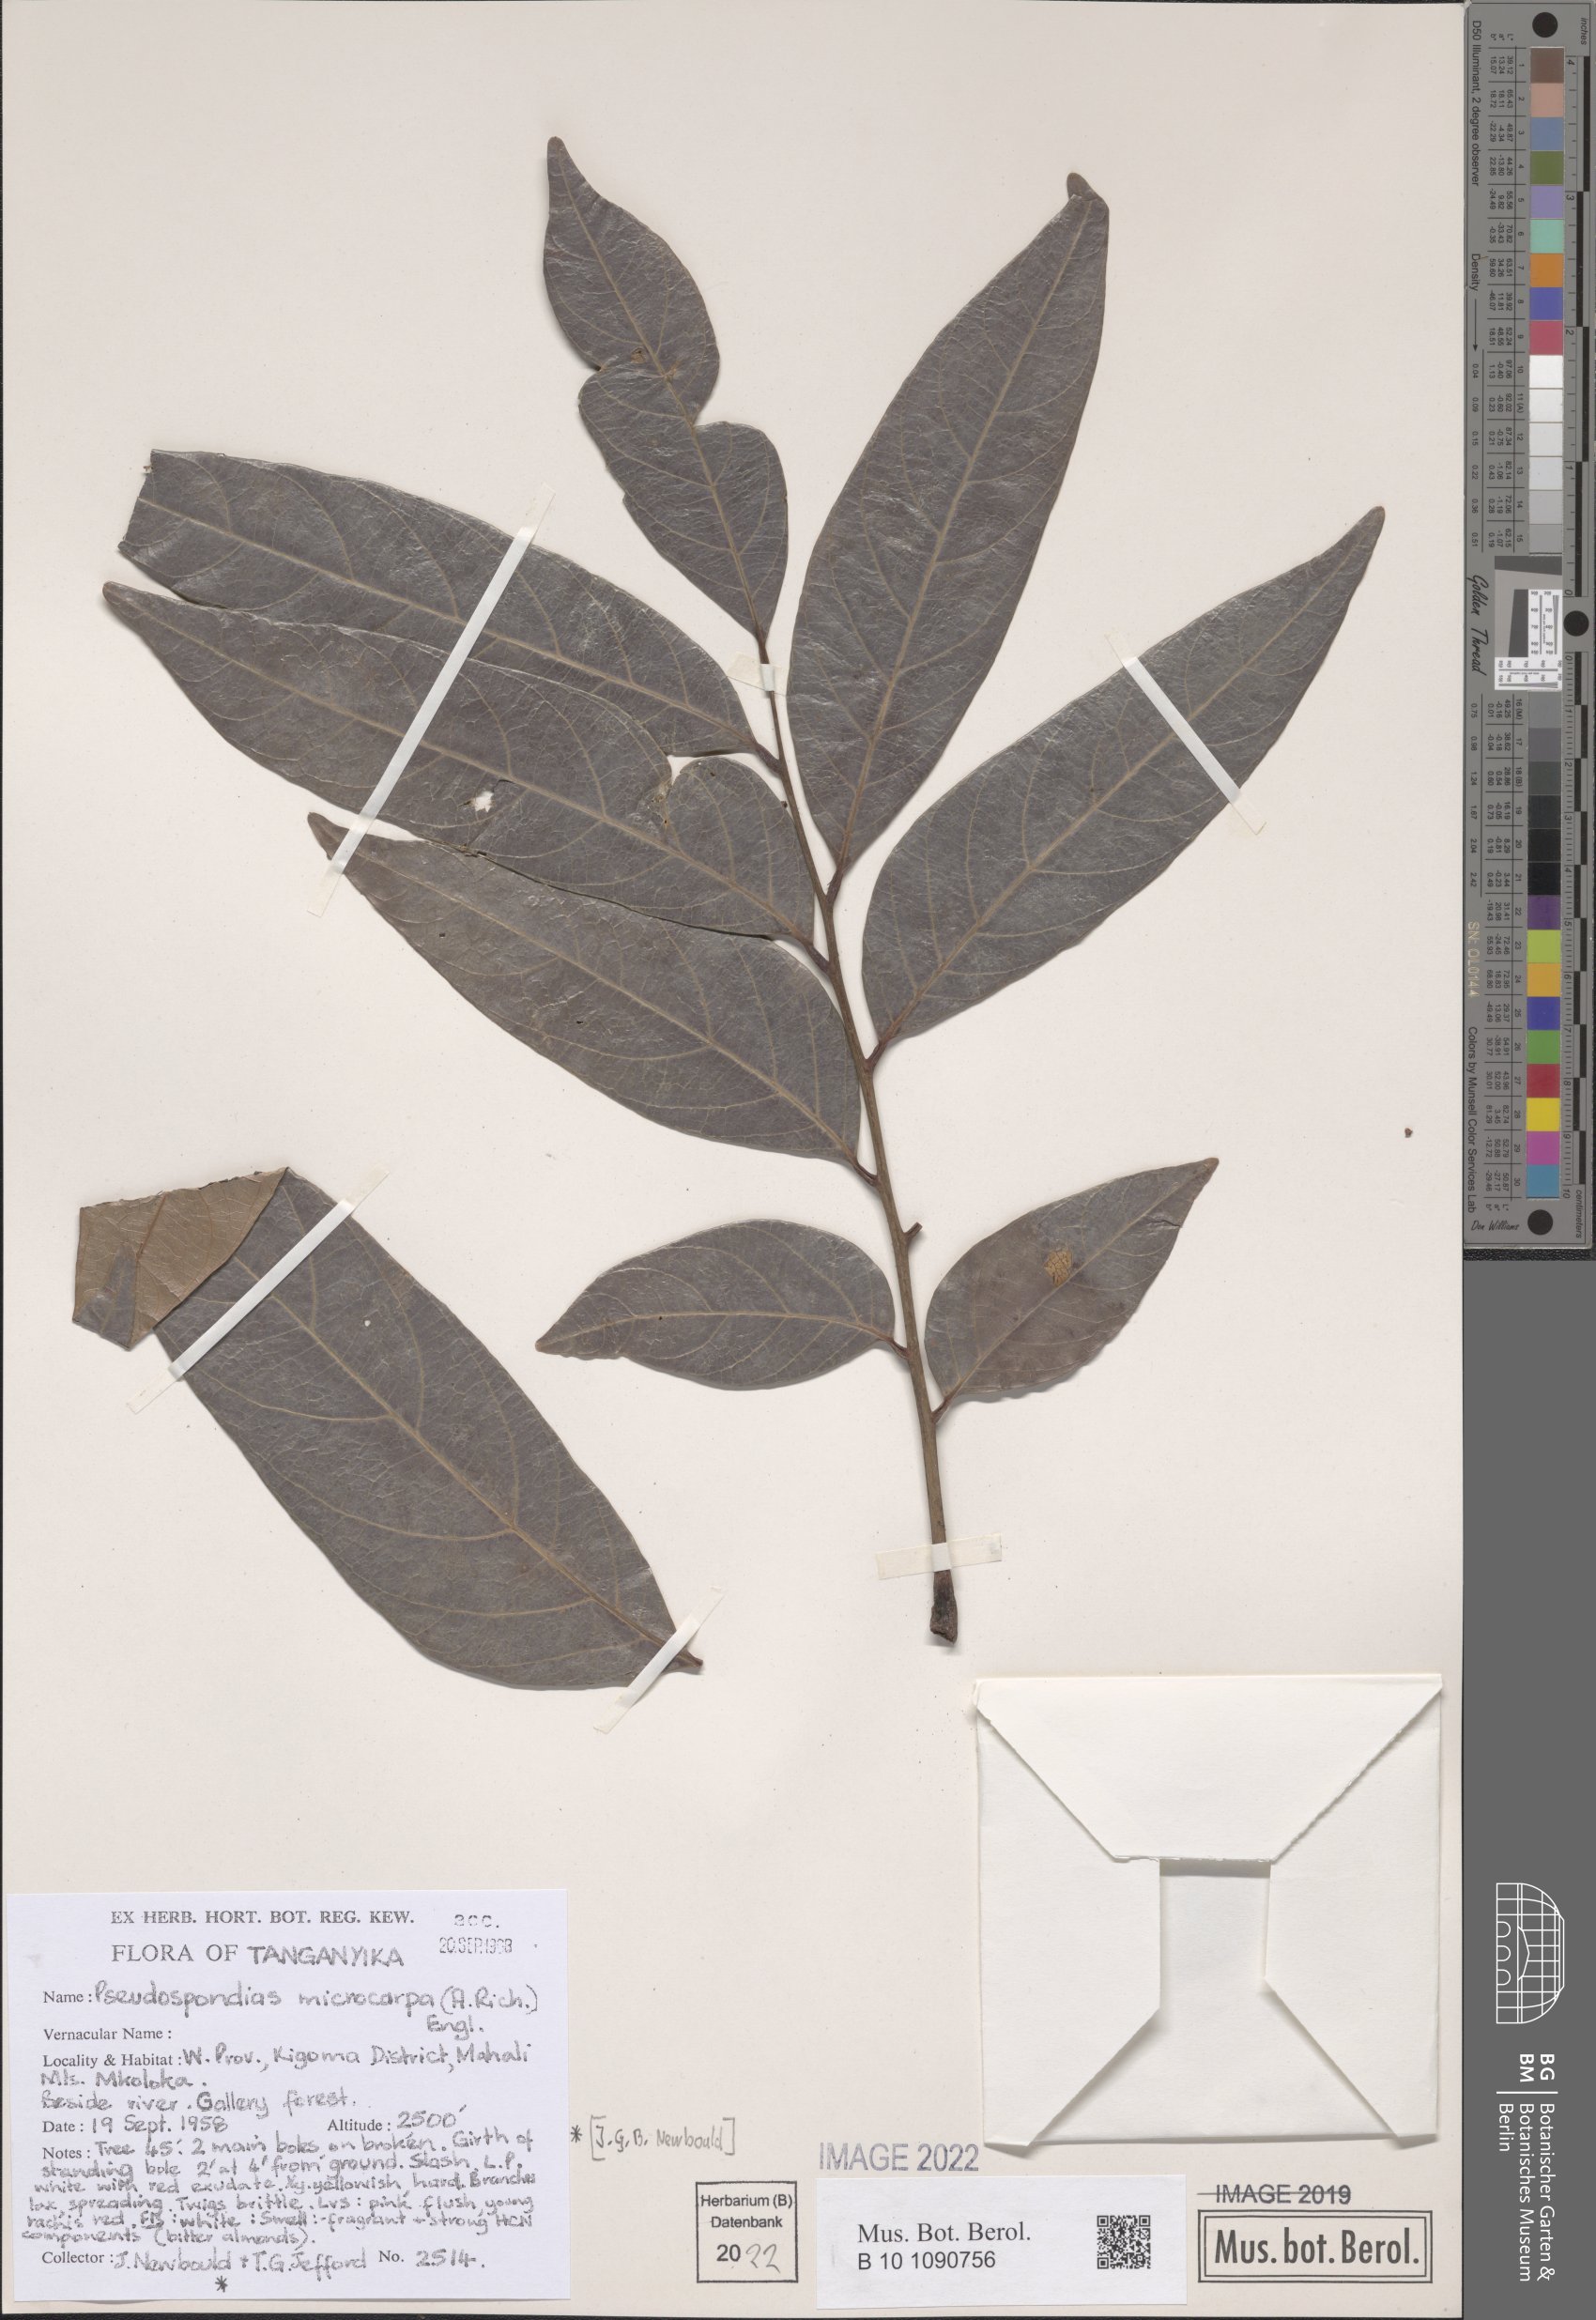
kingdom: Plantae
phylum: Tracheophyta
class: Magnoliopsida
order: Sapindales
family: Anacardiaceae
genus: Pseudospondias
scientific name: Pseudospondias microcarpa
